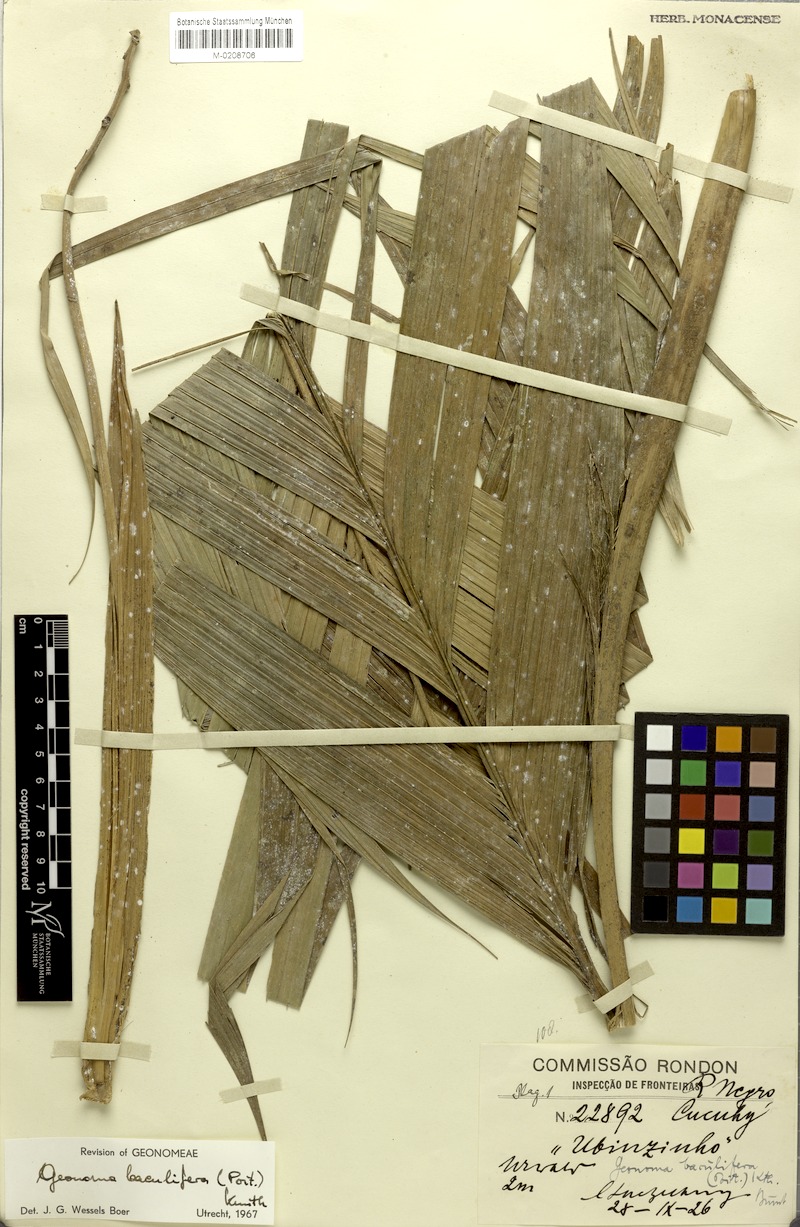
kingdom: Plantae
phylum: Tracheophyta
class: Liliopsida
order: Arecales
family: Arecaceae
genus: Geonoma
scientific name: Geonoma baculifera
